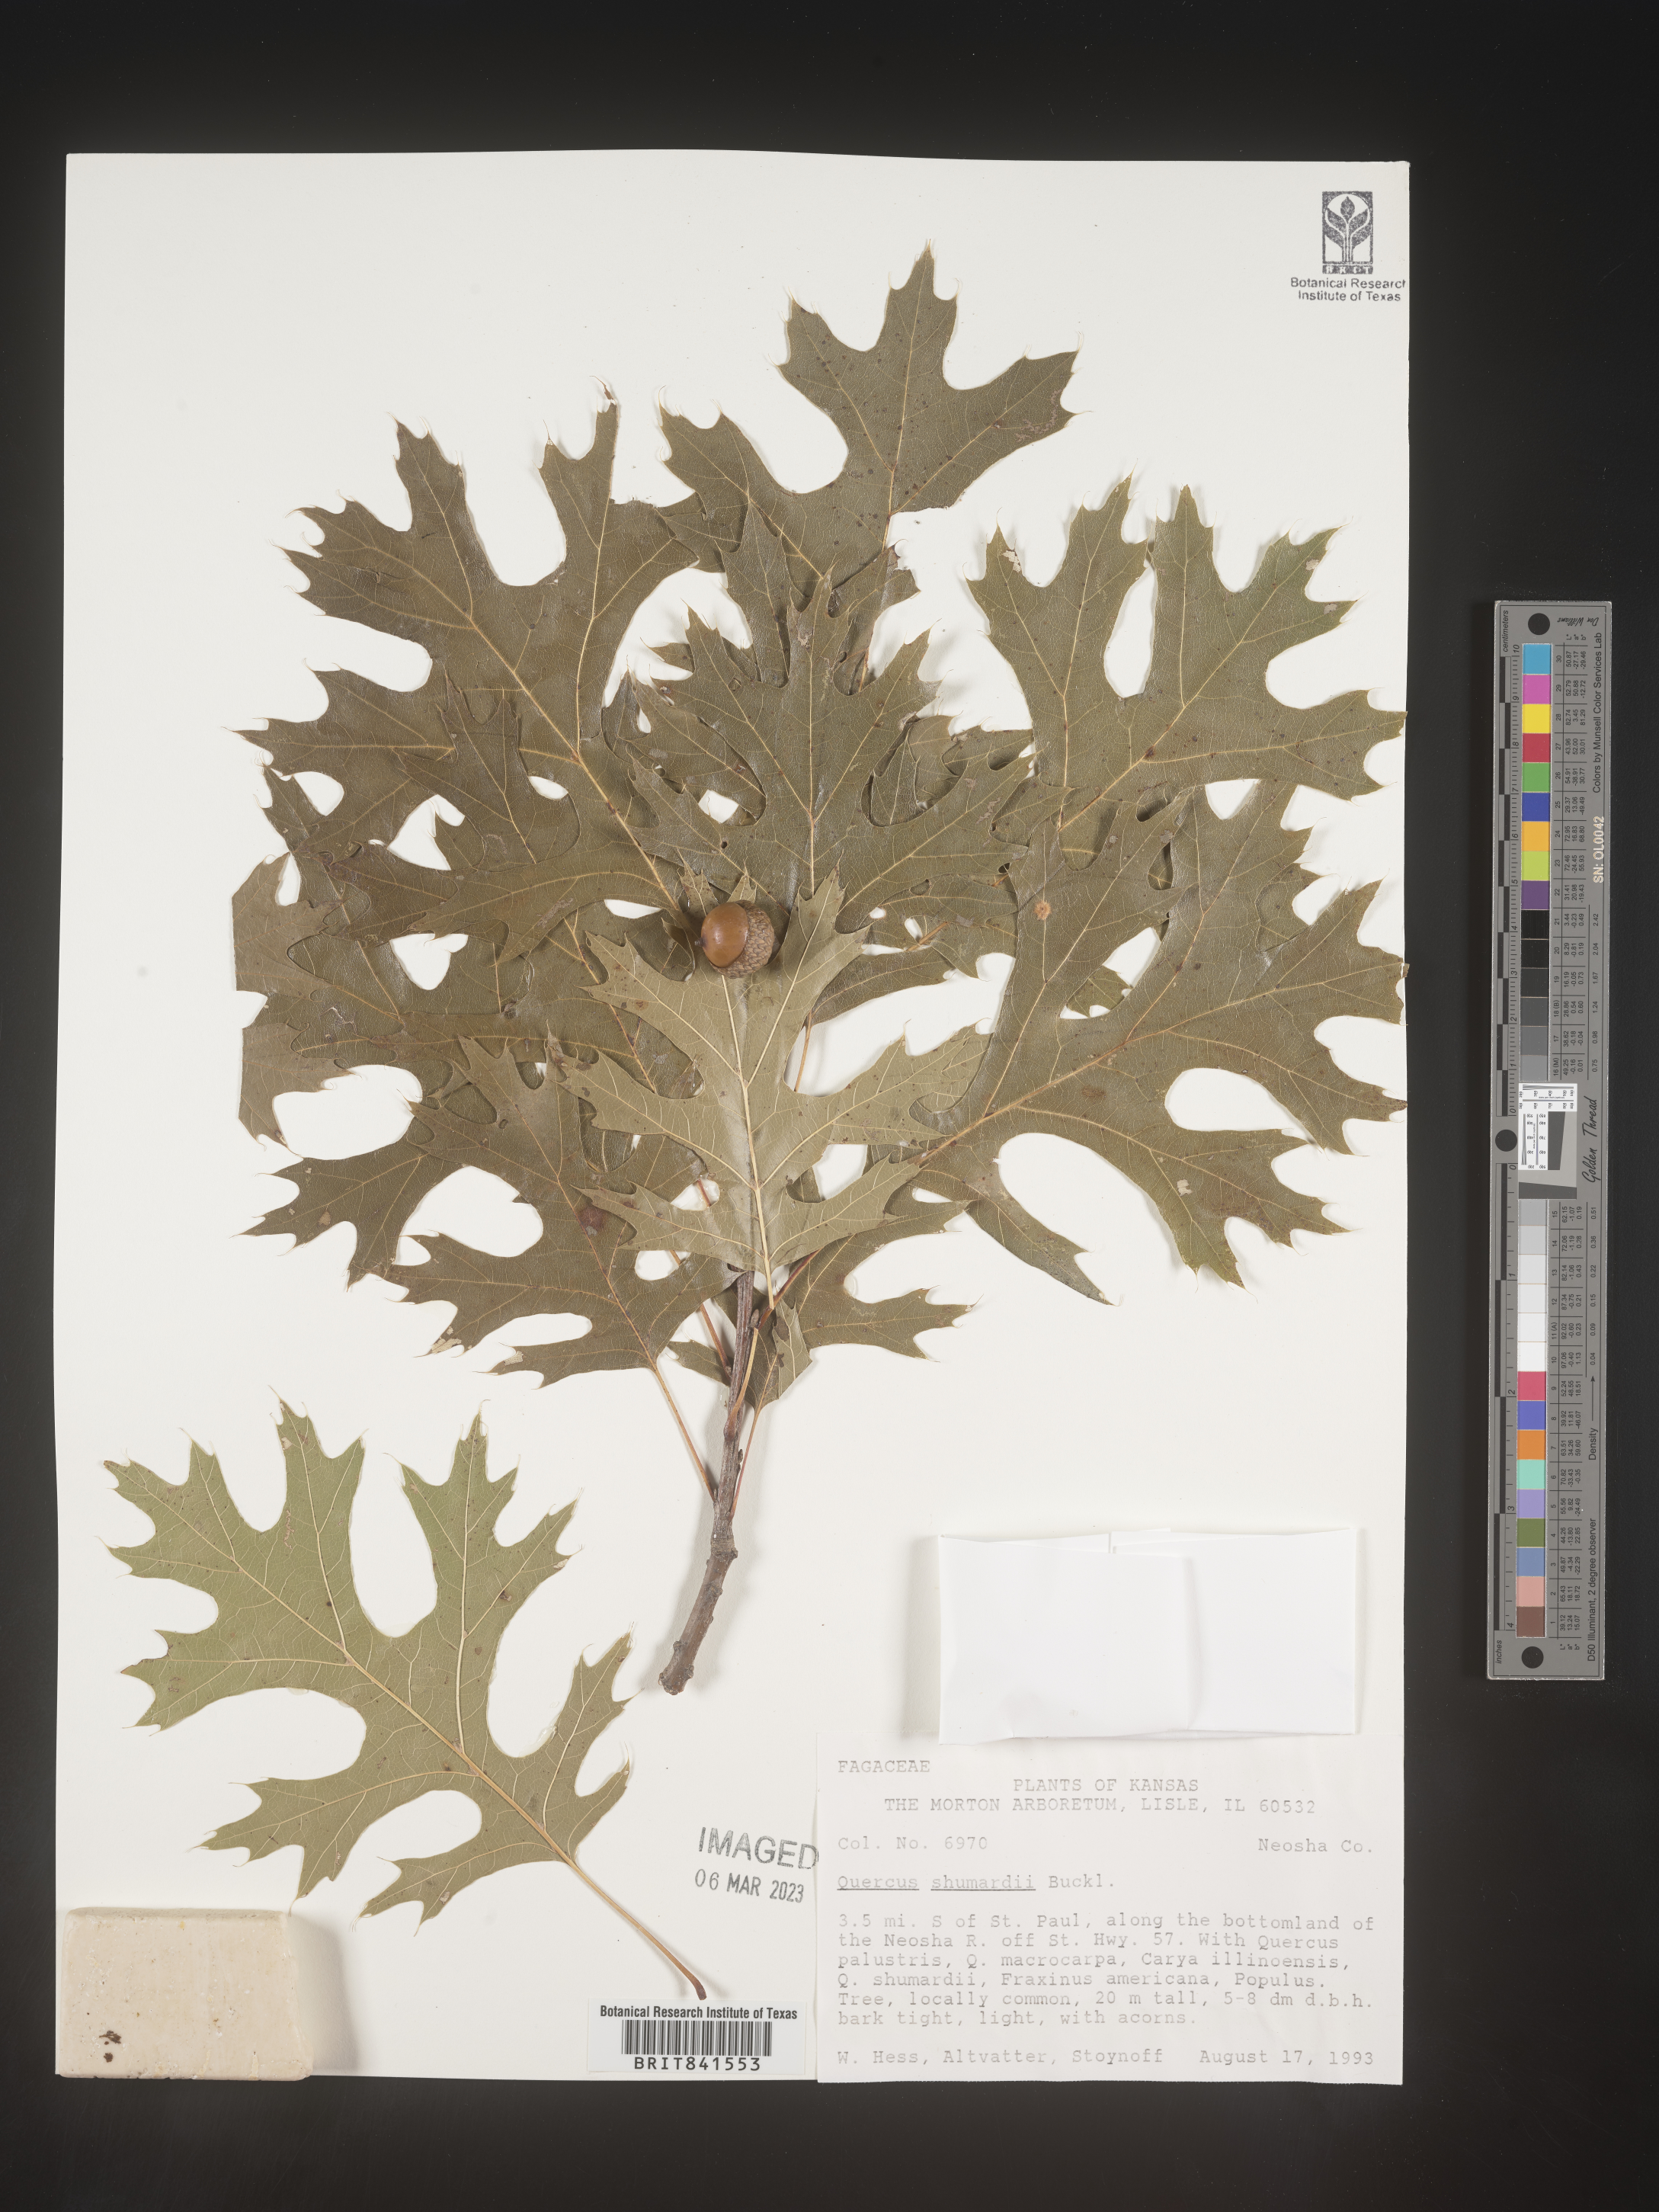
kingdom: Plantae
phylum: Tracheophyta
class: Magnoliopsida
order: Fagales
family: Fagaceae
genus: Quercus
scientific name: Quercus shumardii
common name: Shumard oak
